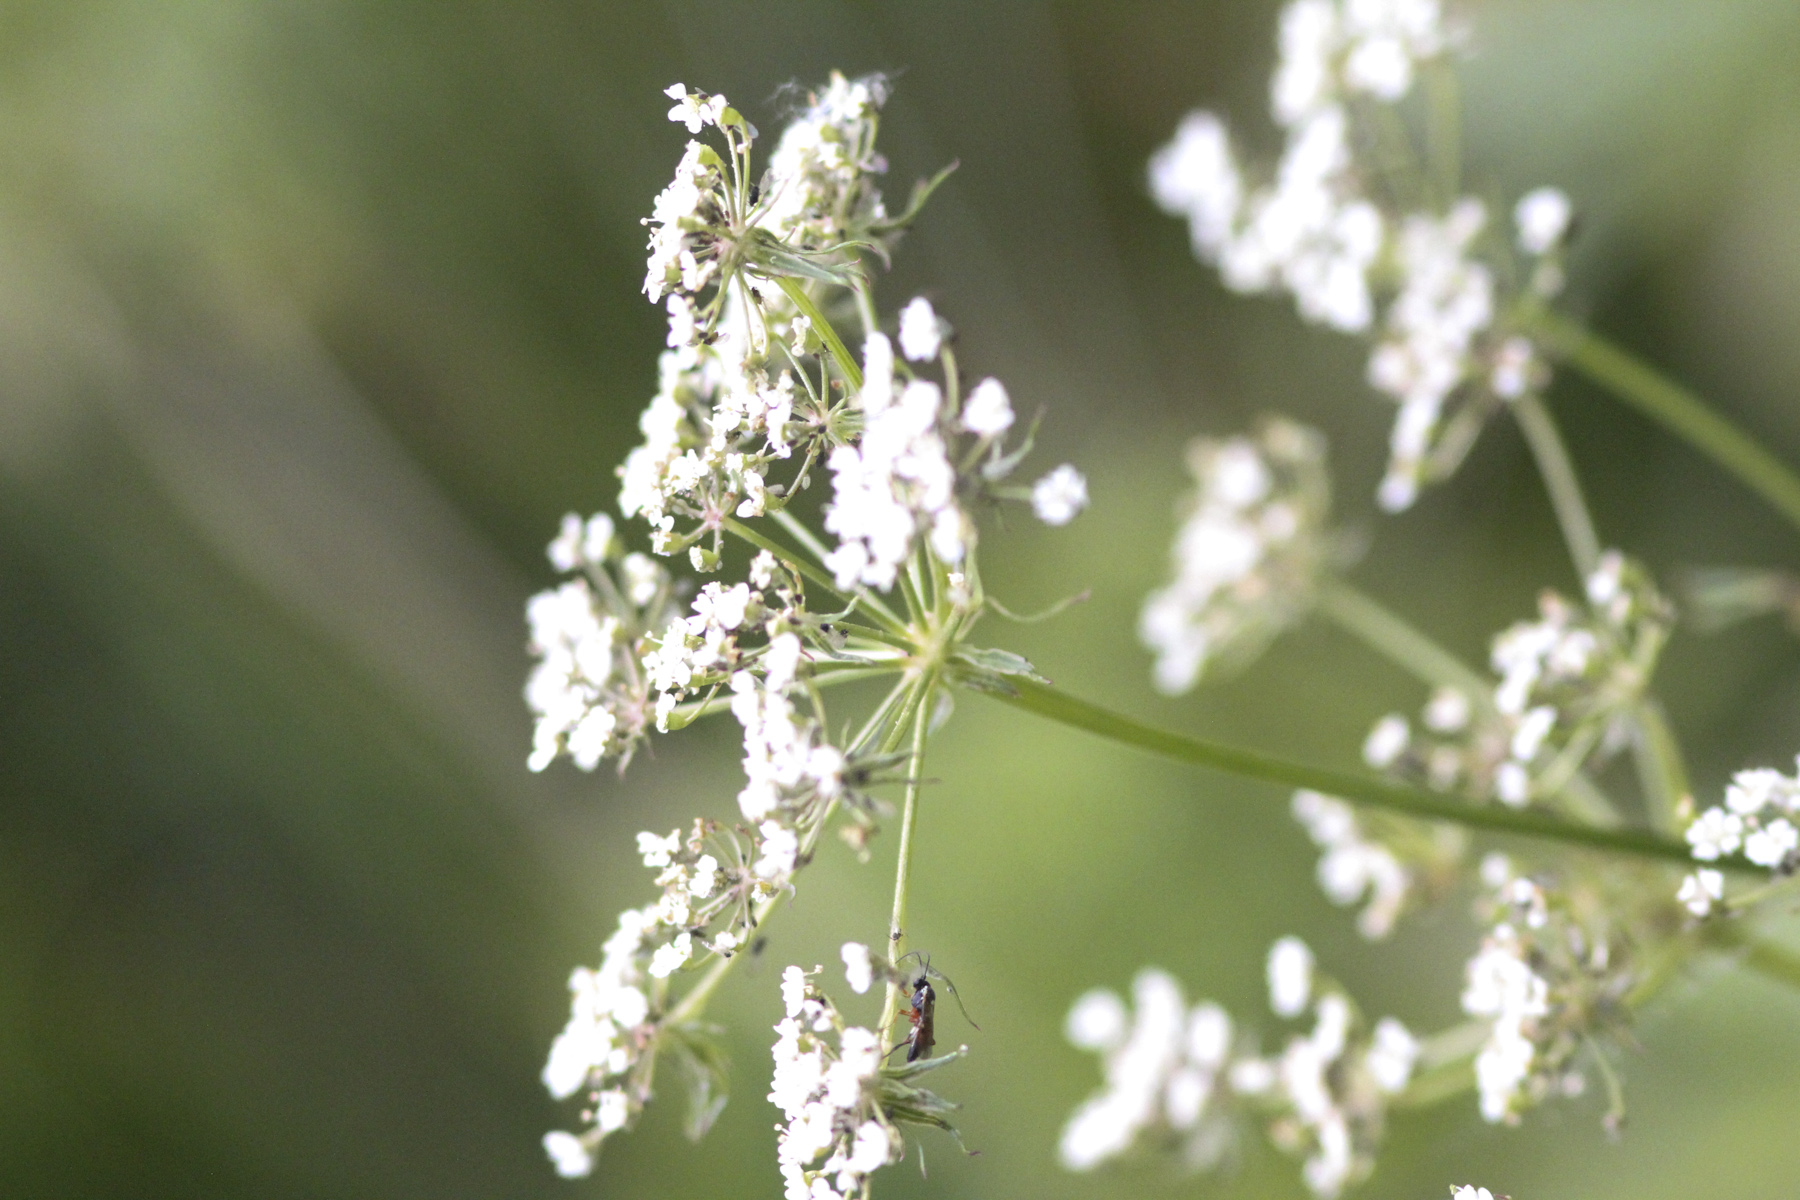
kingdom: Plantae
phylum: Tracheophyta
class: Magnoliopsida
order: Apiales
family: Apiaceae
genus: Peucedanum
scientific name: Peucedanum
